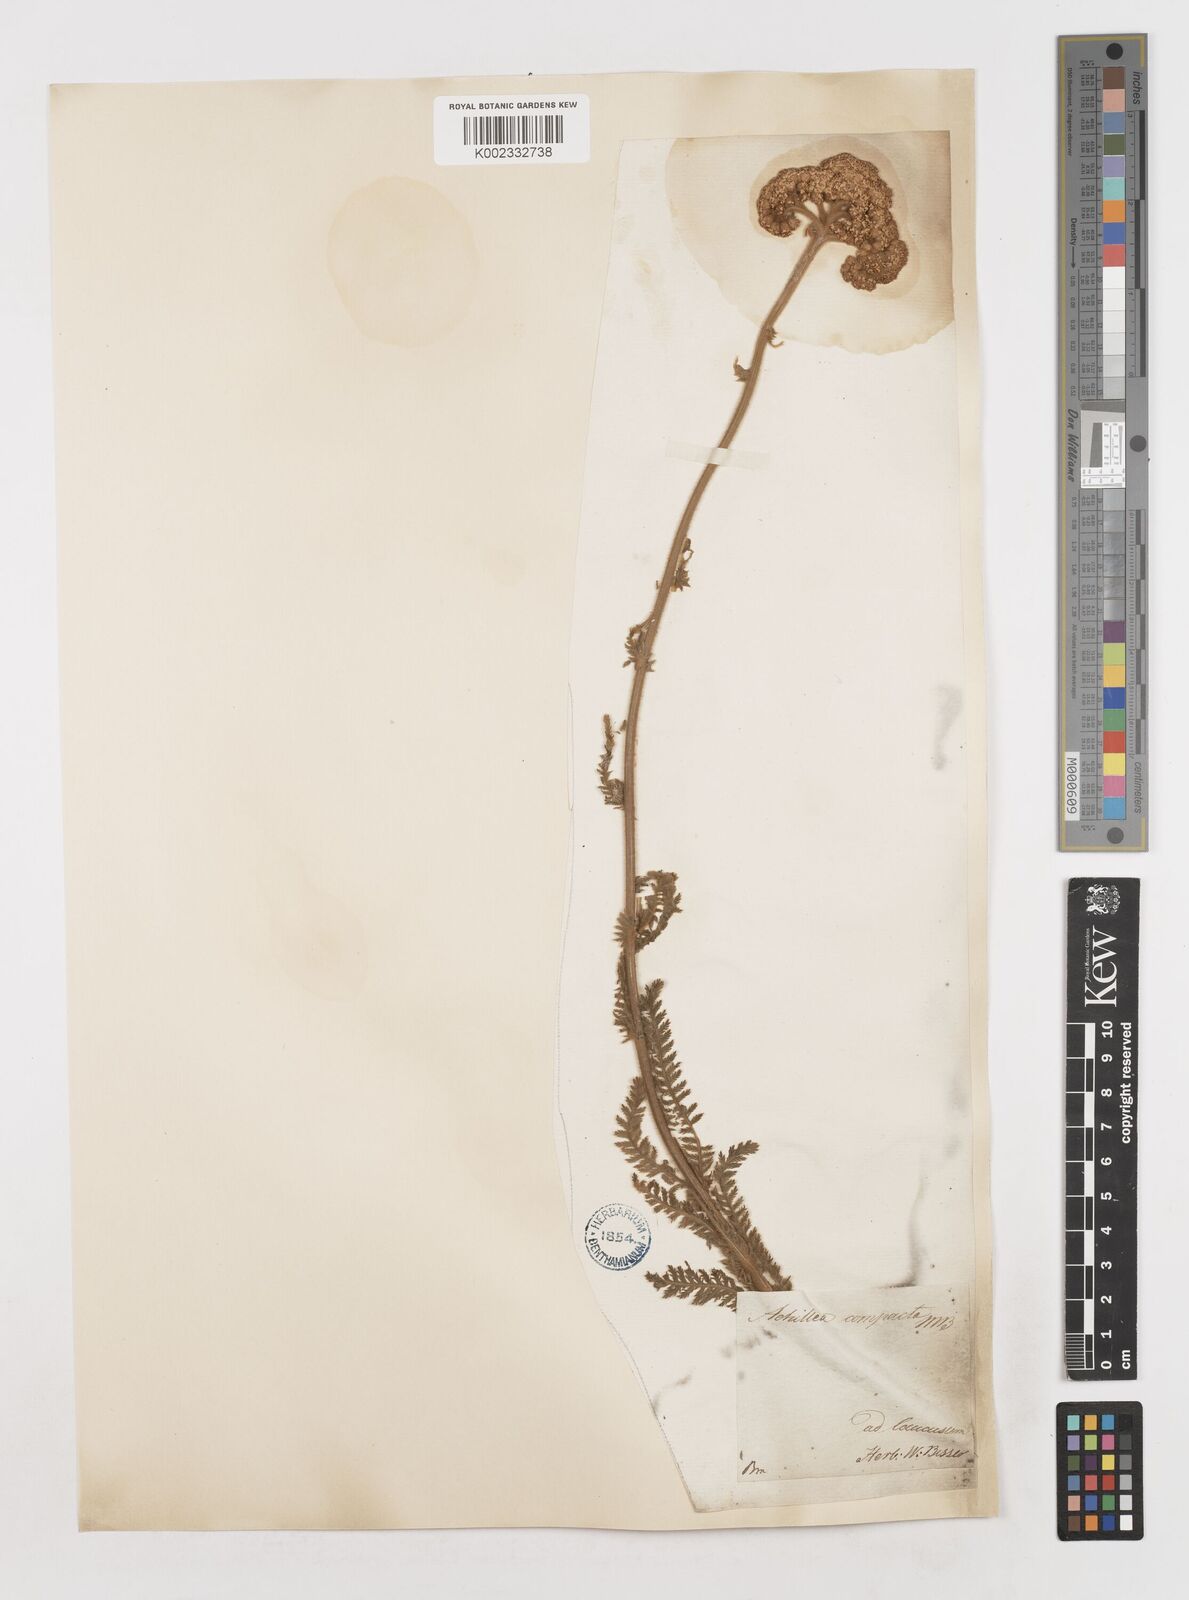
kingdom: Plantae
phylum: Tracheophyta
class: Magnoliopsida
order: Asterales
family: Asteraceae
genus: Achillea
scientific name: Achillea coarctata
